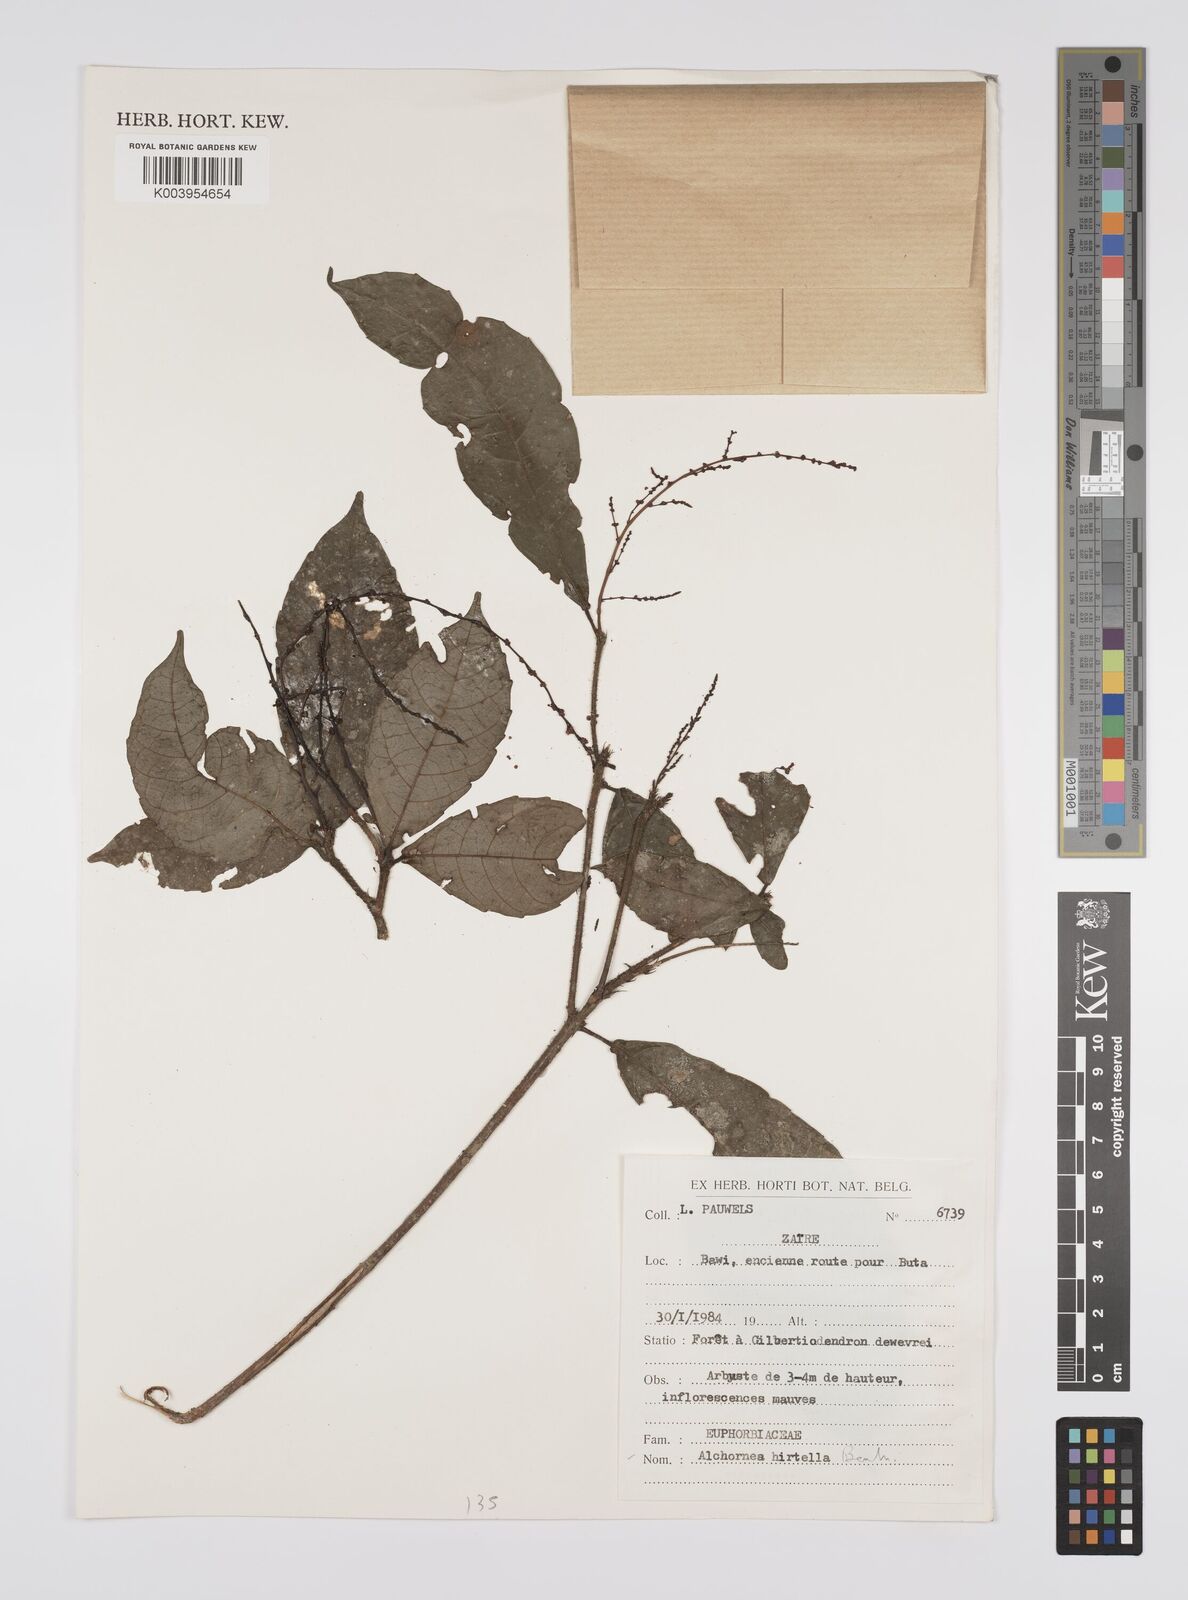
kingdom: Plantae
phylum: Tracheophyta
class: Magnoliopsida
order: Malpighiales
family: Euphorbiaceae
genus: Alchornea
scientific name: Alchornea hirtella
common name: Forest bead-string
